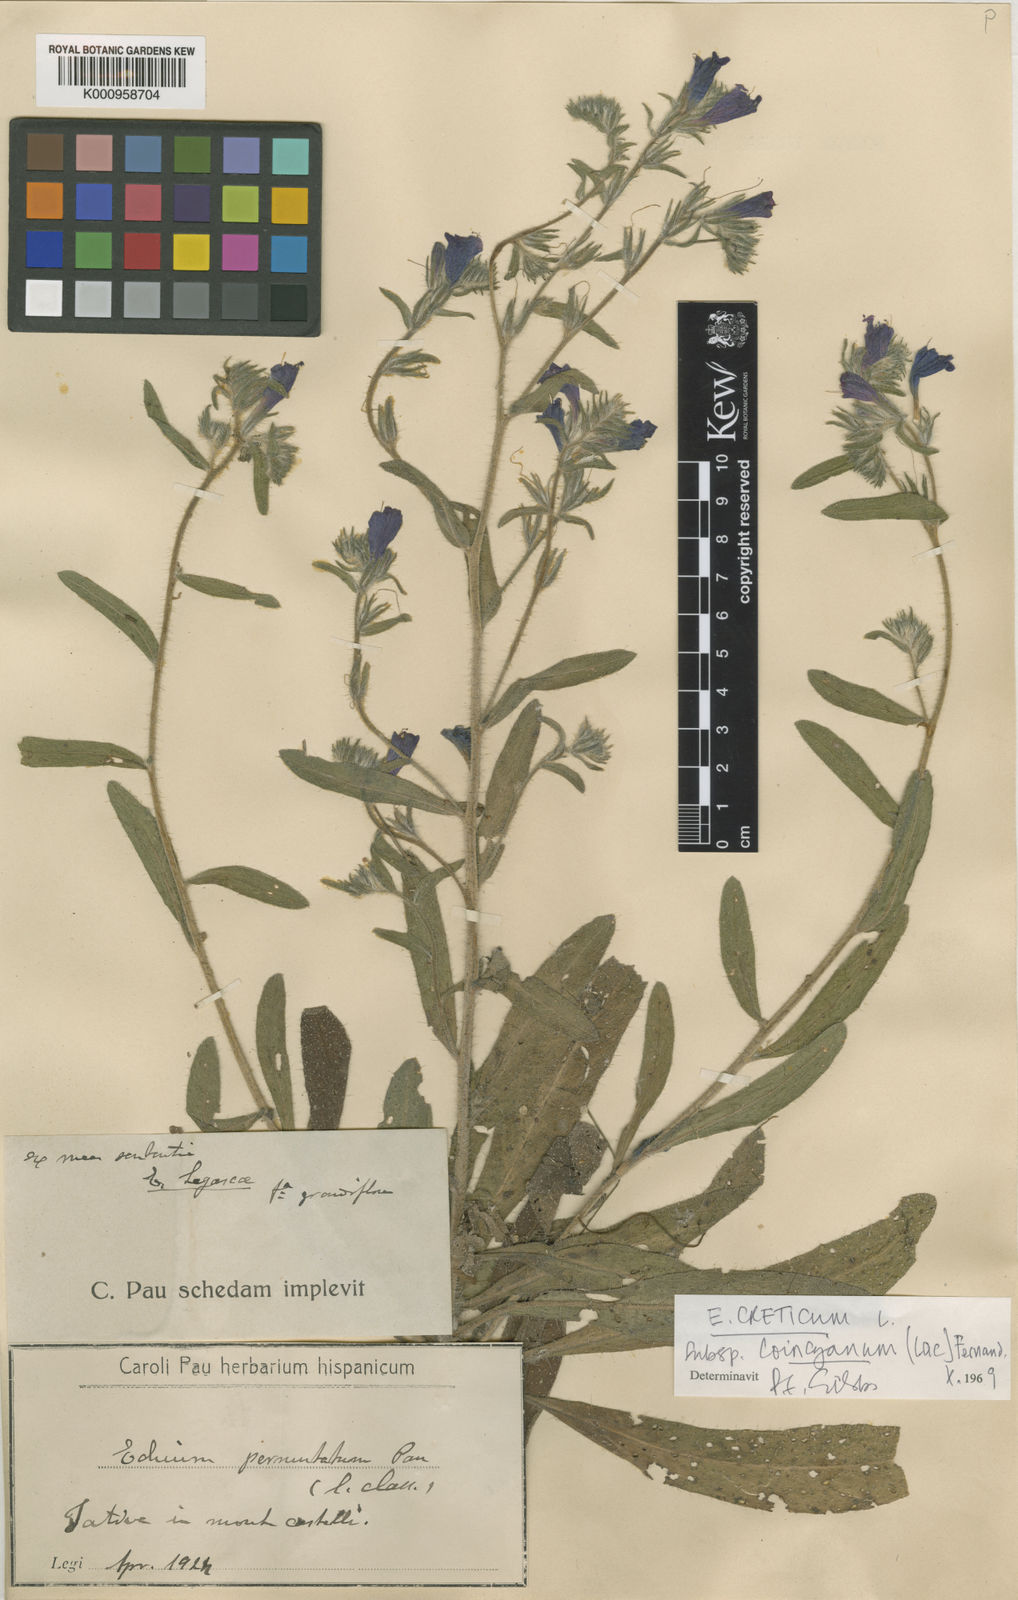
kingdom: Plantae
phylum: Tracheophyta
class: Magnoliopsida
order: Boraginales
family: Boraginaceae
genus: Echium
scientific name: Echium creticum
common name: Cretan viper's bugloss
